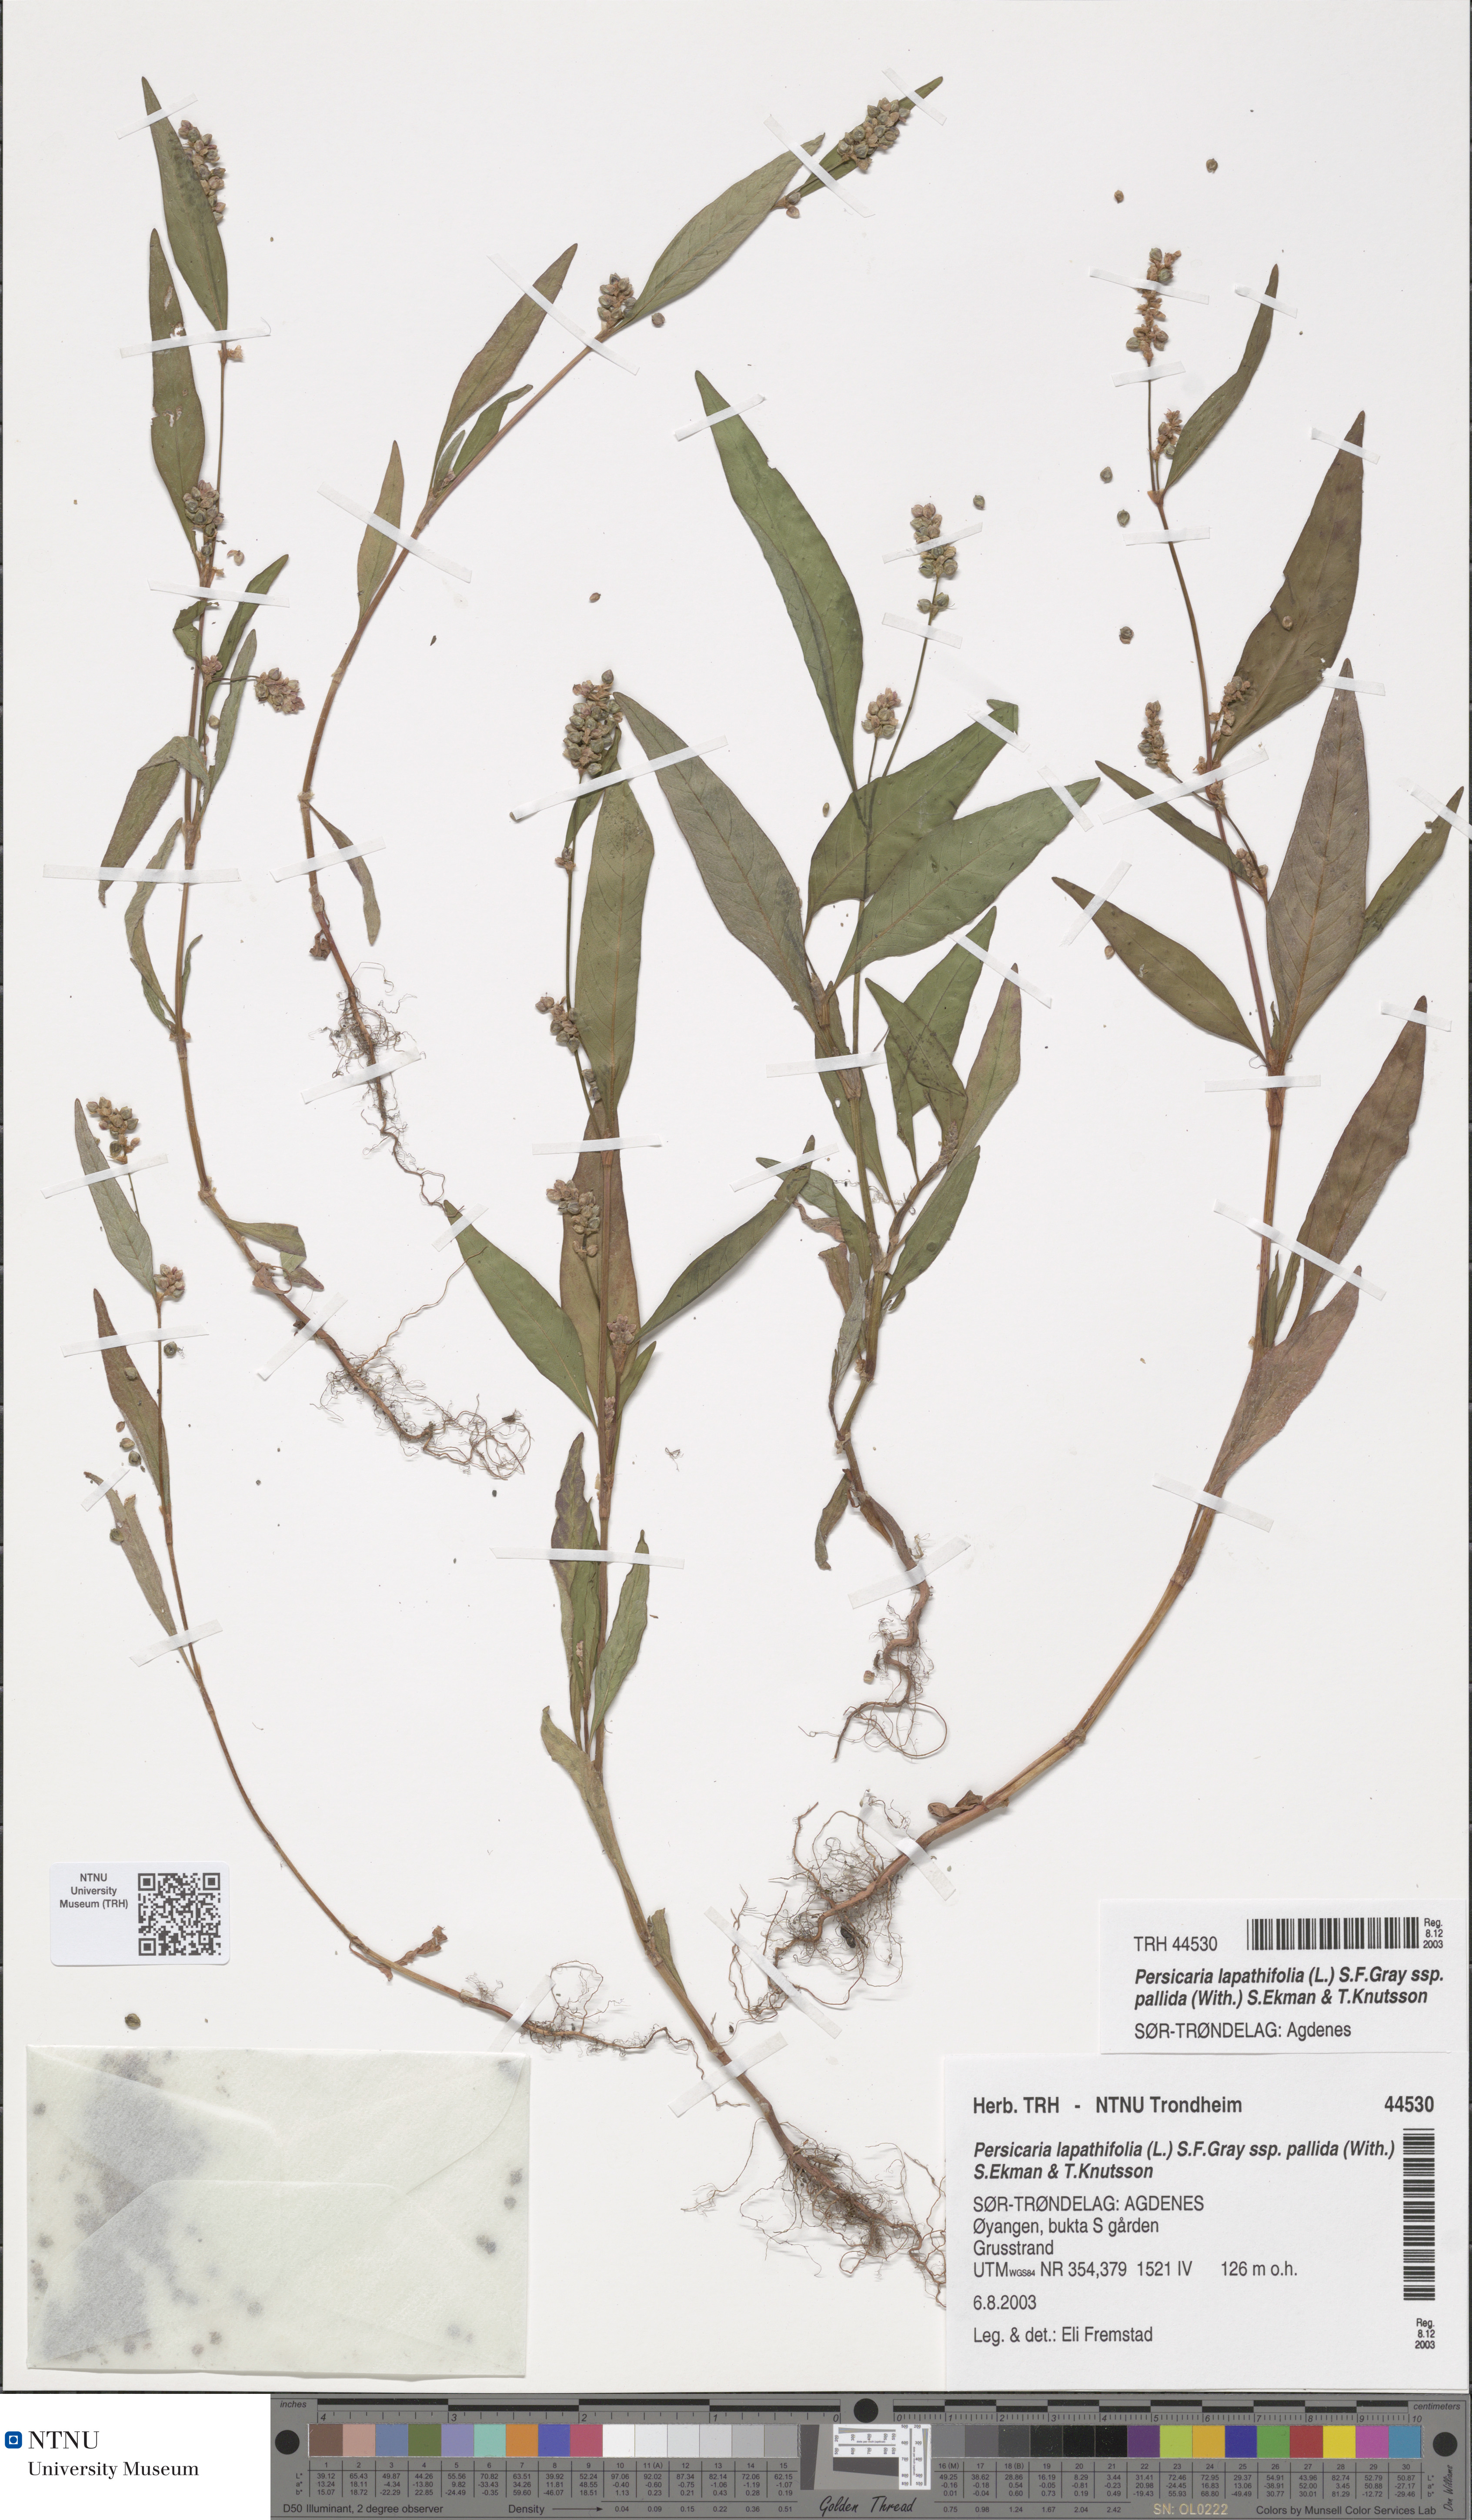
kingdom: Plantae
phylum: Tracheophyta
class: Magnoliopsida
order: Caryophyllales
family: Polygonaceae
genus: Persicaria
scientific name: Persicaria lapathifolia
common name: Curlytop knotweed
